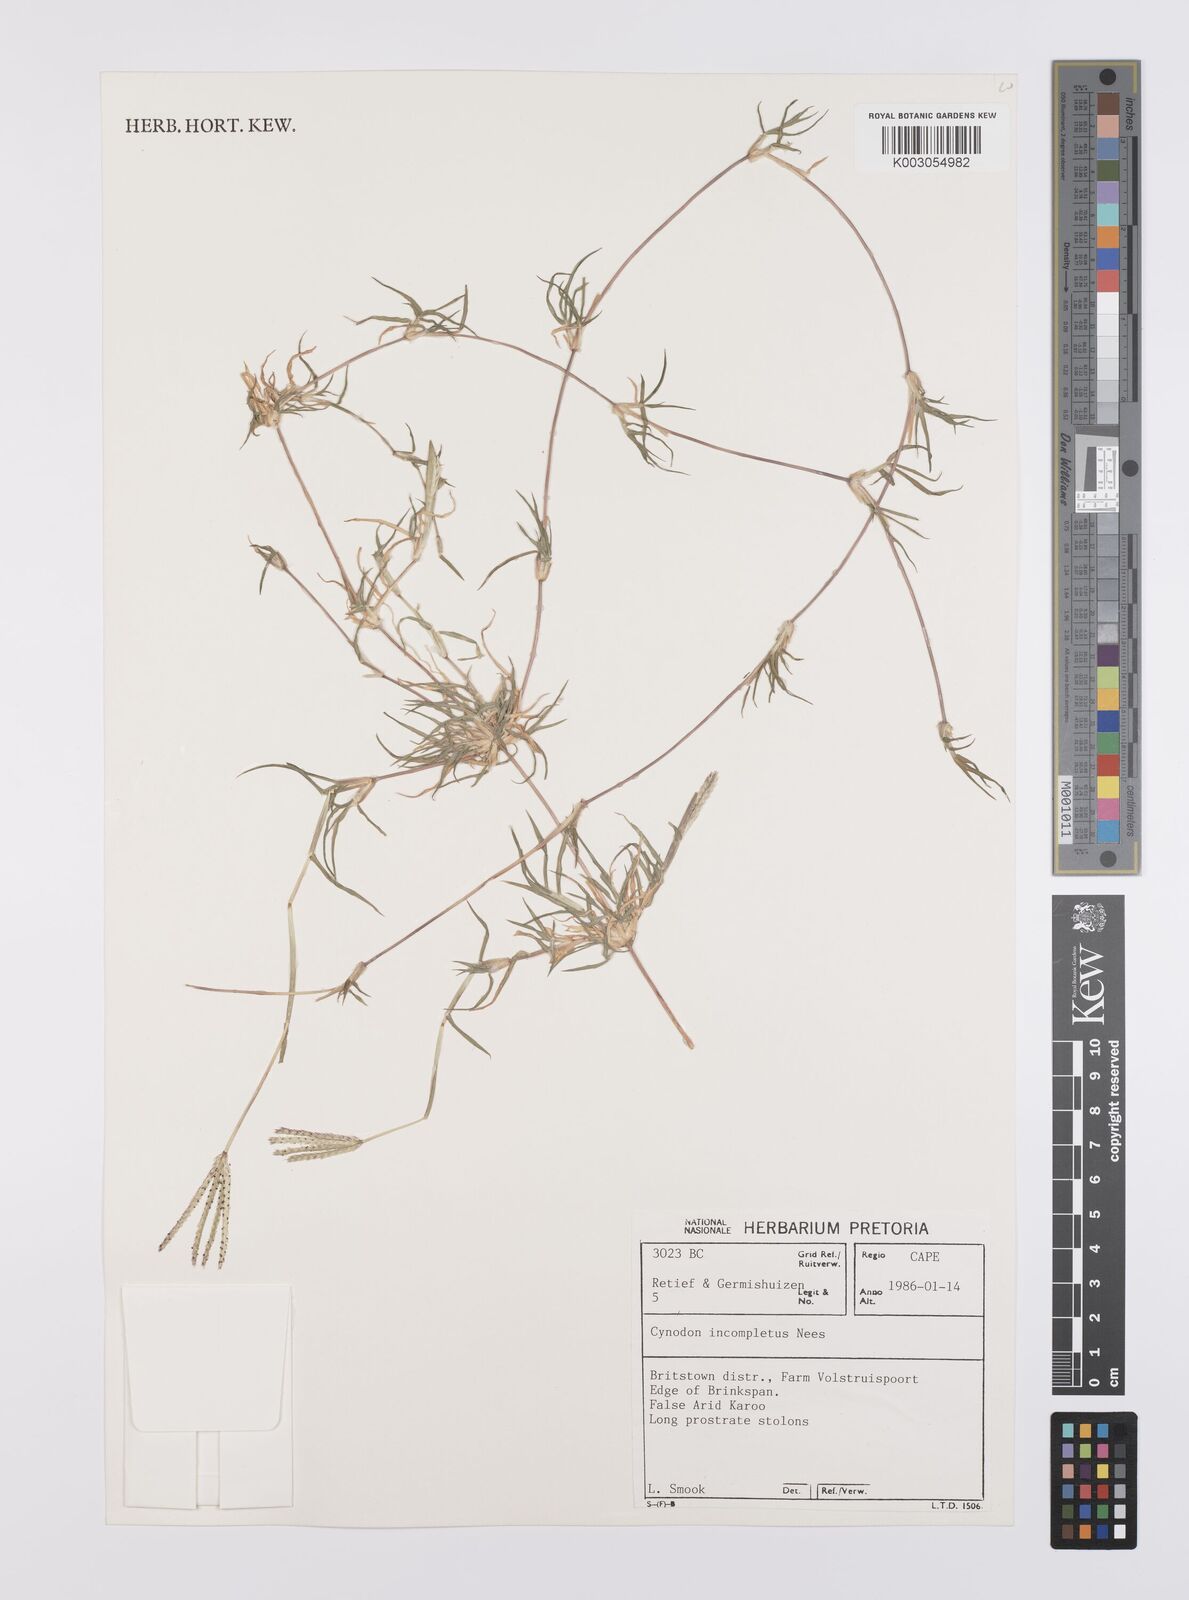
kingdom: Plantae
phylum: Tracheophyta
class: Liliopsida
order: Poales
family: Poaceae
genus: Cynodon
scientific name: Cynodon incompletus
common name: African bermuda-grass
